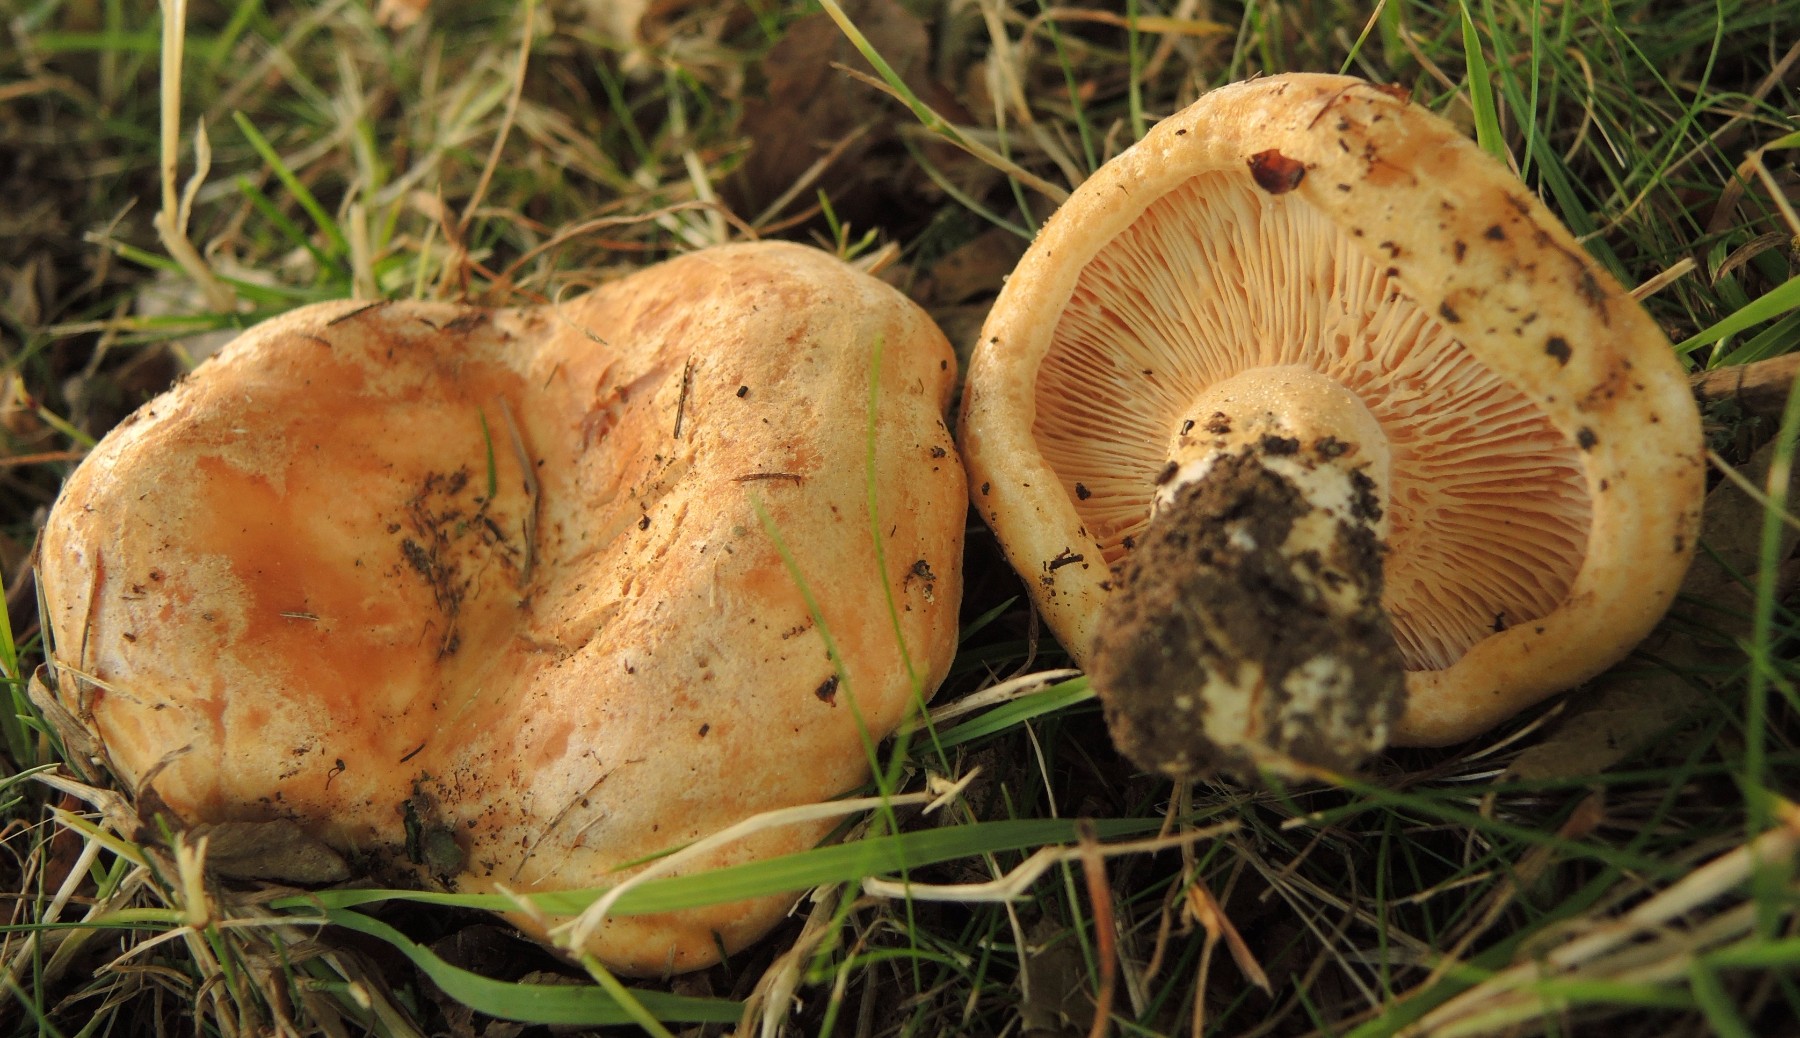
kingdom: Fungi
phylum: Basidiomycota
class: Agaricomycetes
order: Russulales
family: Russulaceae
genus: Lactarius
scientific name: Lactarius acerrimus
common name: brændende mælkehat
